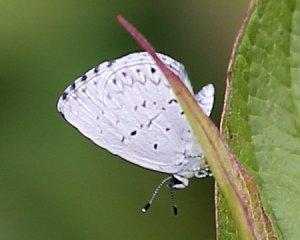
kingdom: Animalia
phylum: Arthropoda
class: Insecta
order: Lepidoptera
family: Lycaenidae
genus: Cyaniris
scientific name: Cyaniris neglecta
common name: Summer Azure
